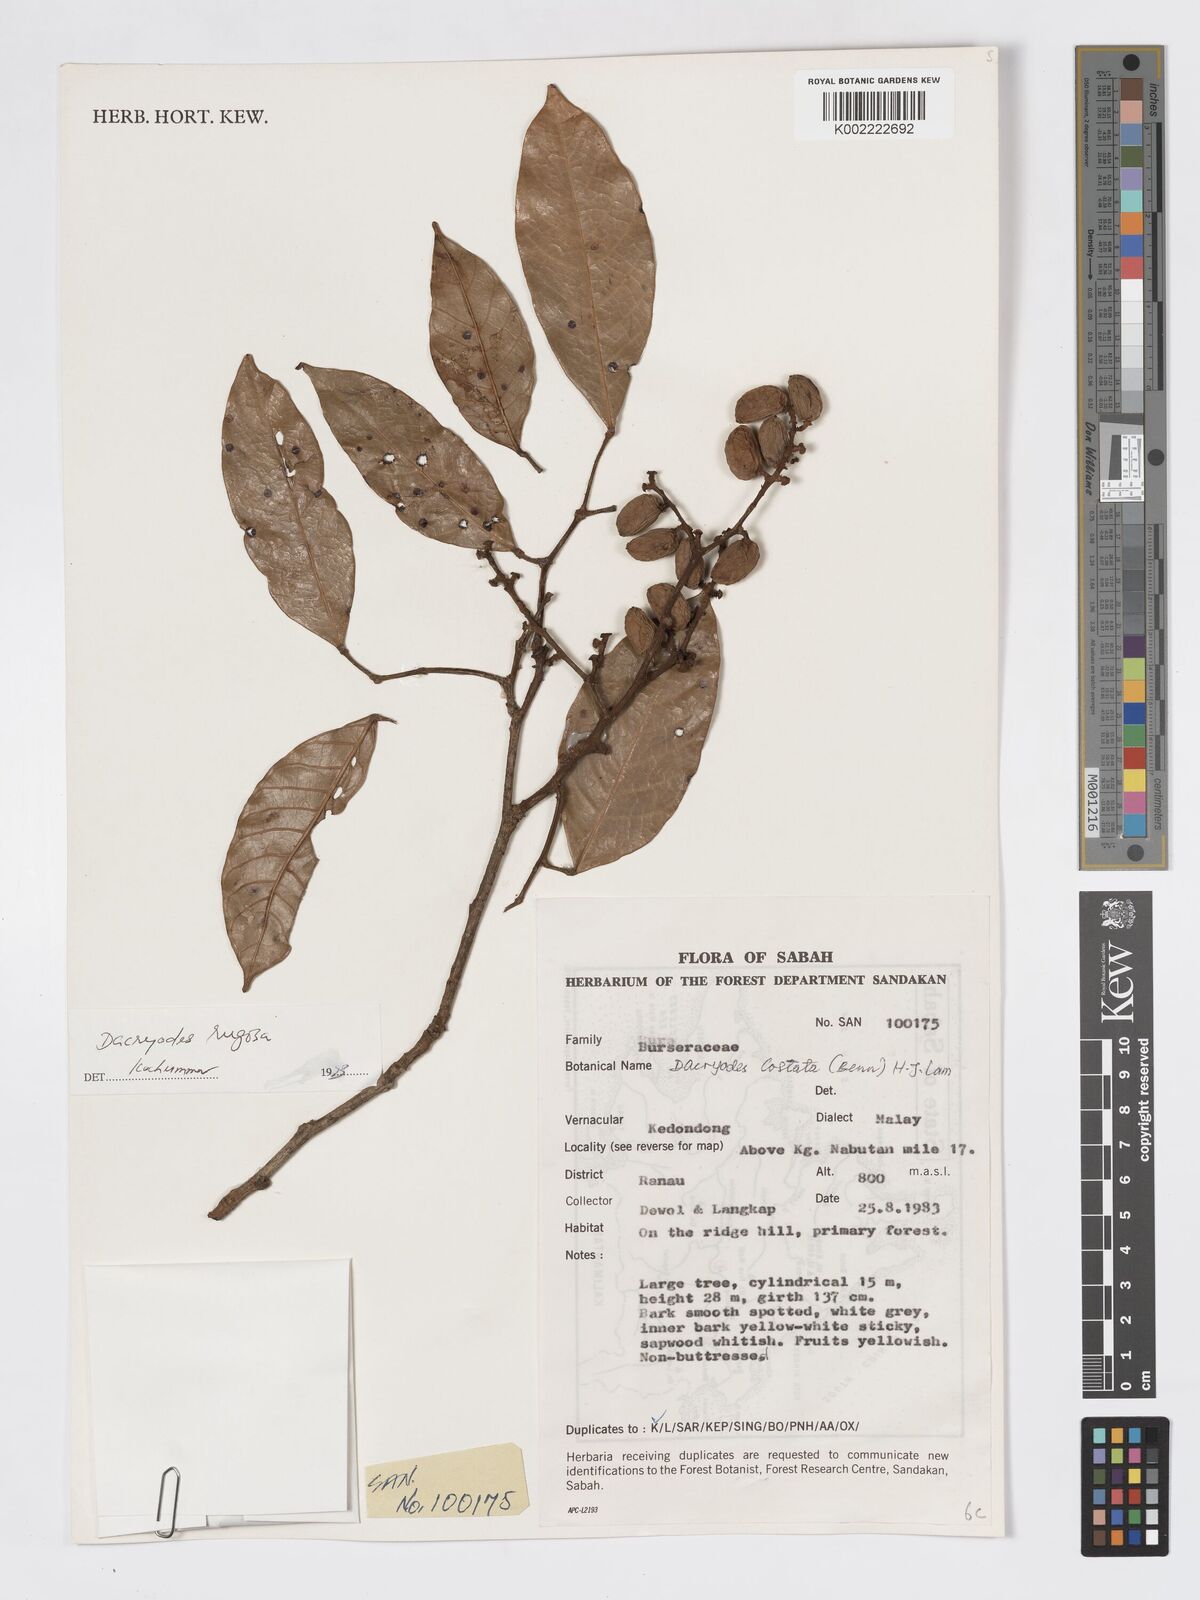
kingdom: Plantae
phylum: Tracheophyta
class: Magnoliopsida
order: Sapindales
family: Burseraceae
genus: Dacryodes
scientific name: Dacryodes rugosa
